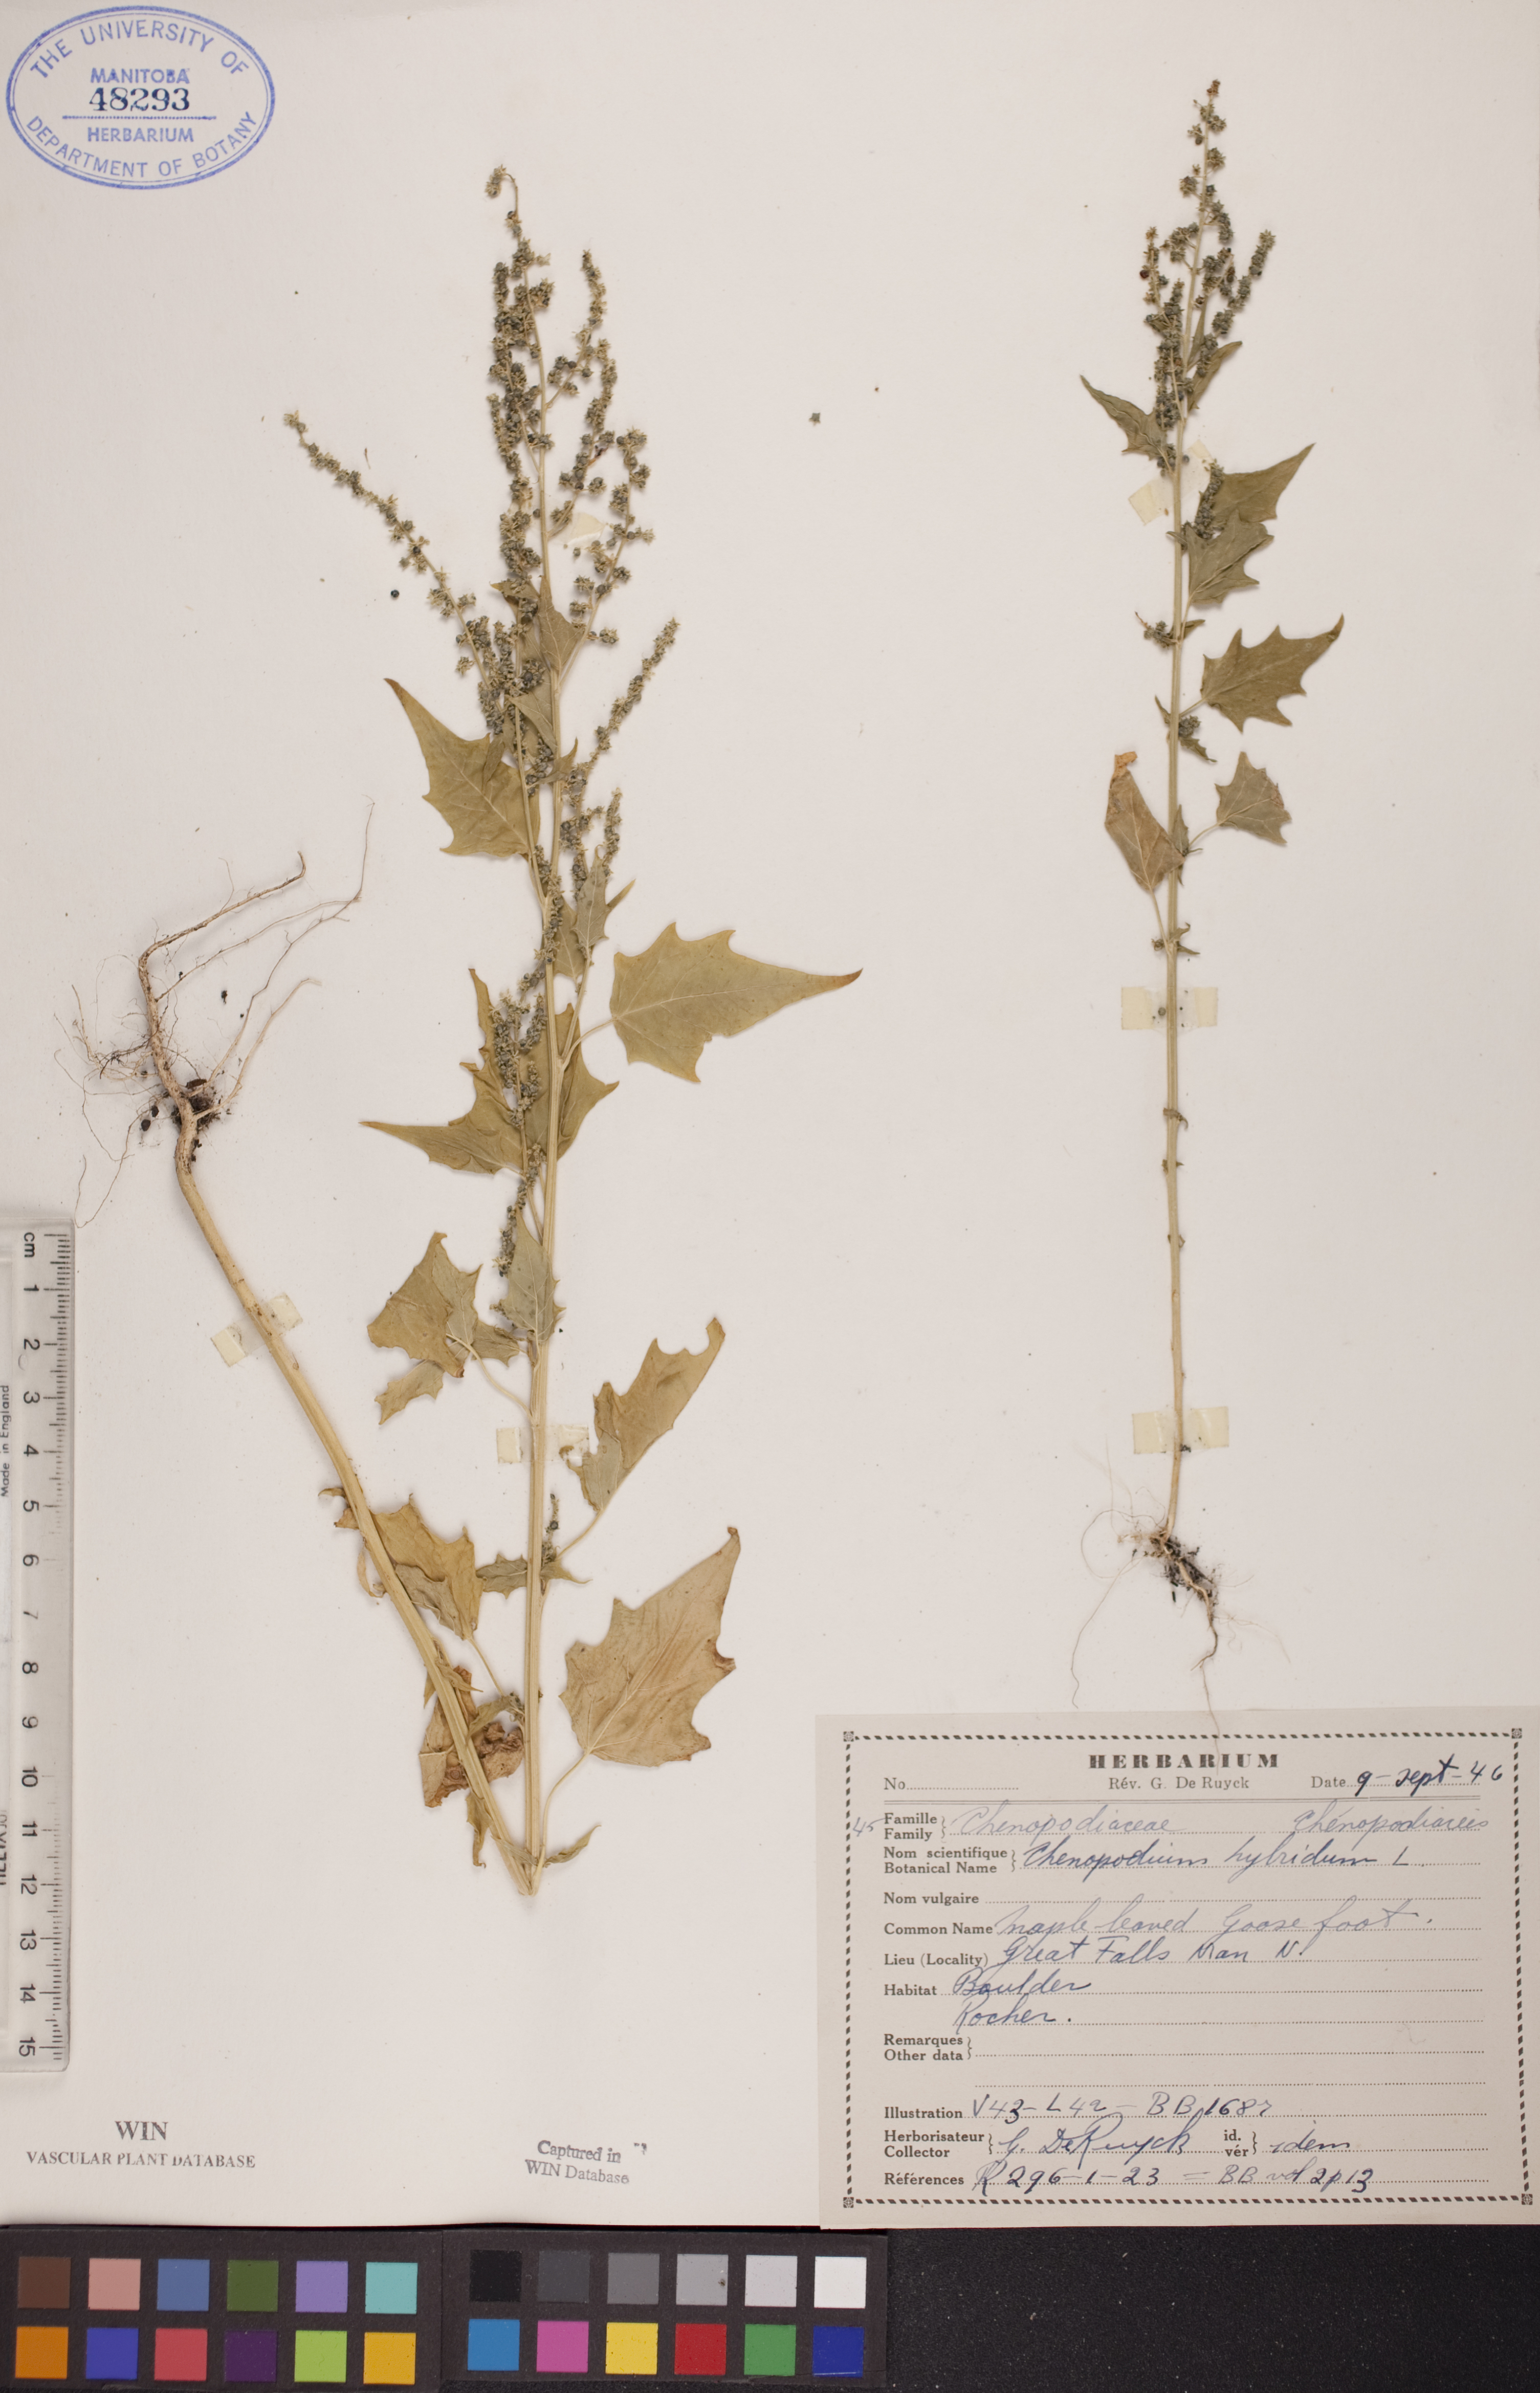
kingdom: Plantae
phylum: Tracheophyta
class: Magnoliopsida
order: Caryophyllales
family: Amaranthaceae
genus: Chenopodiastrum
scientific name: Chenopodiastrum hybridum
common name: Mapleleaf goosefoot
